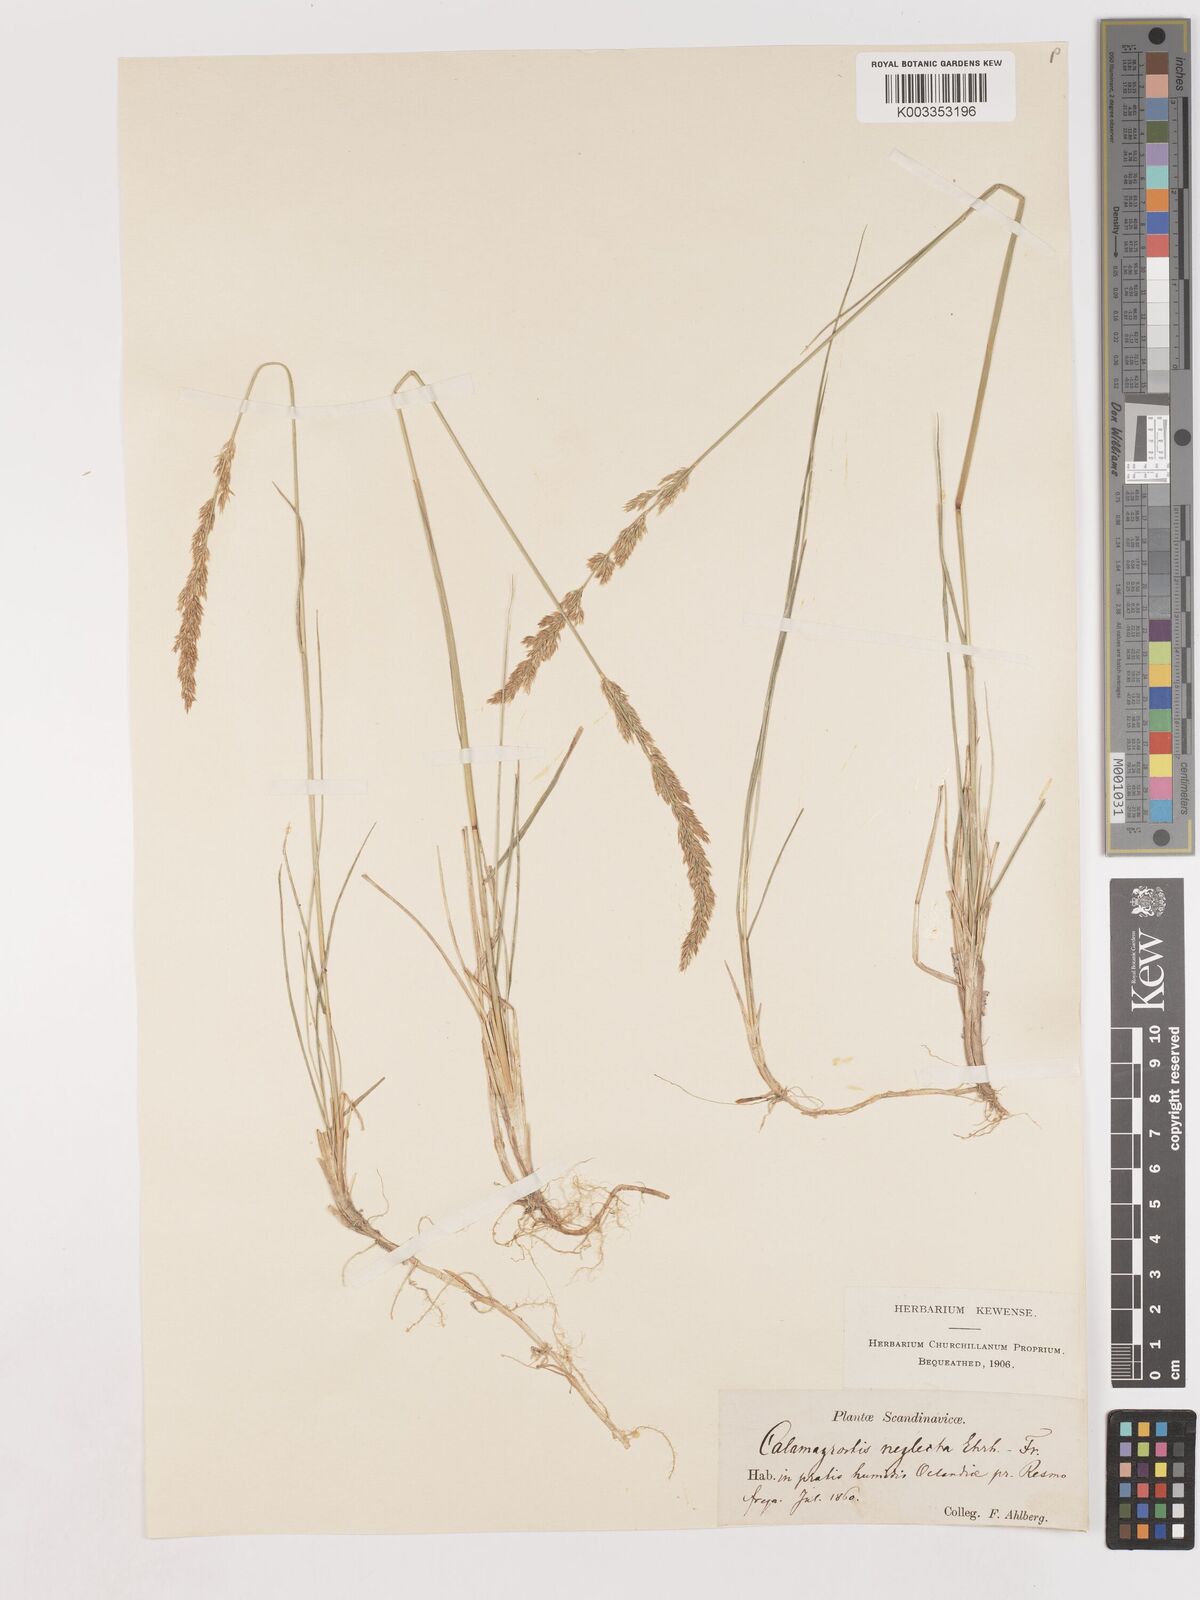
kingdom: Plantae
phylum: Tracheophyta
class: Liliopsida
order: Poales
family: Poaceae
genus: Cinnagrostis
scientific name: Cinnagrostis recta
